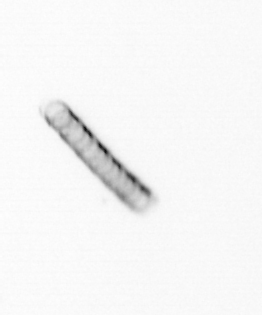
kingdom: Chromista
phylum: Ochrophyta
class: Bacillariophyceae
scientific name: Bacillariophyceae
